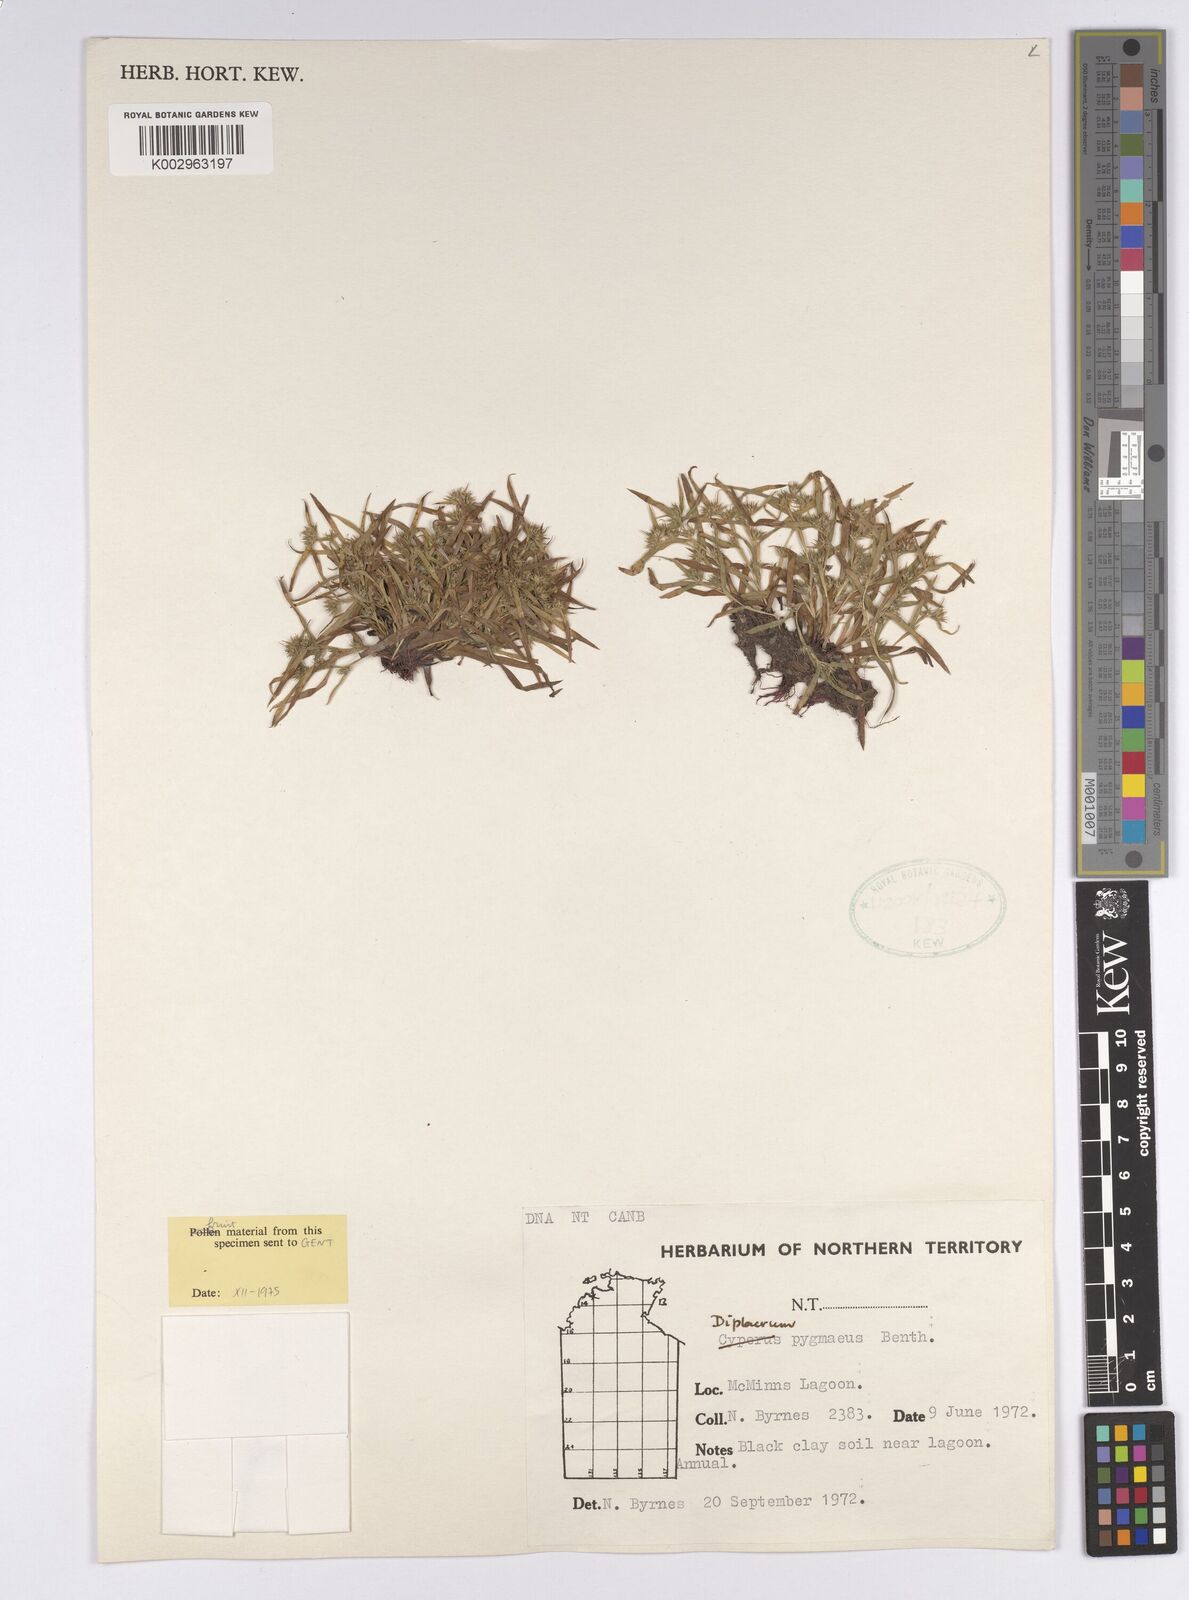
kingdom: Plantae
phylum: Tracheophyta
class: Liliopsida
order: Poales
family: Cyperaceae
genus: Diplacrum
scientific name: Diplacrum pygmaeum
